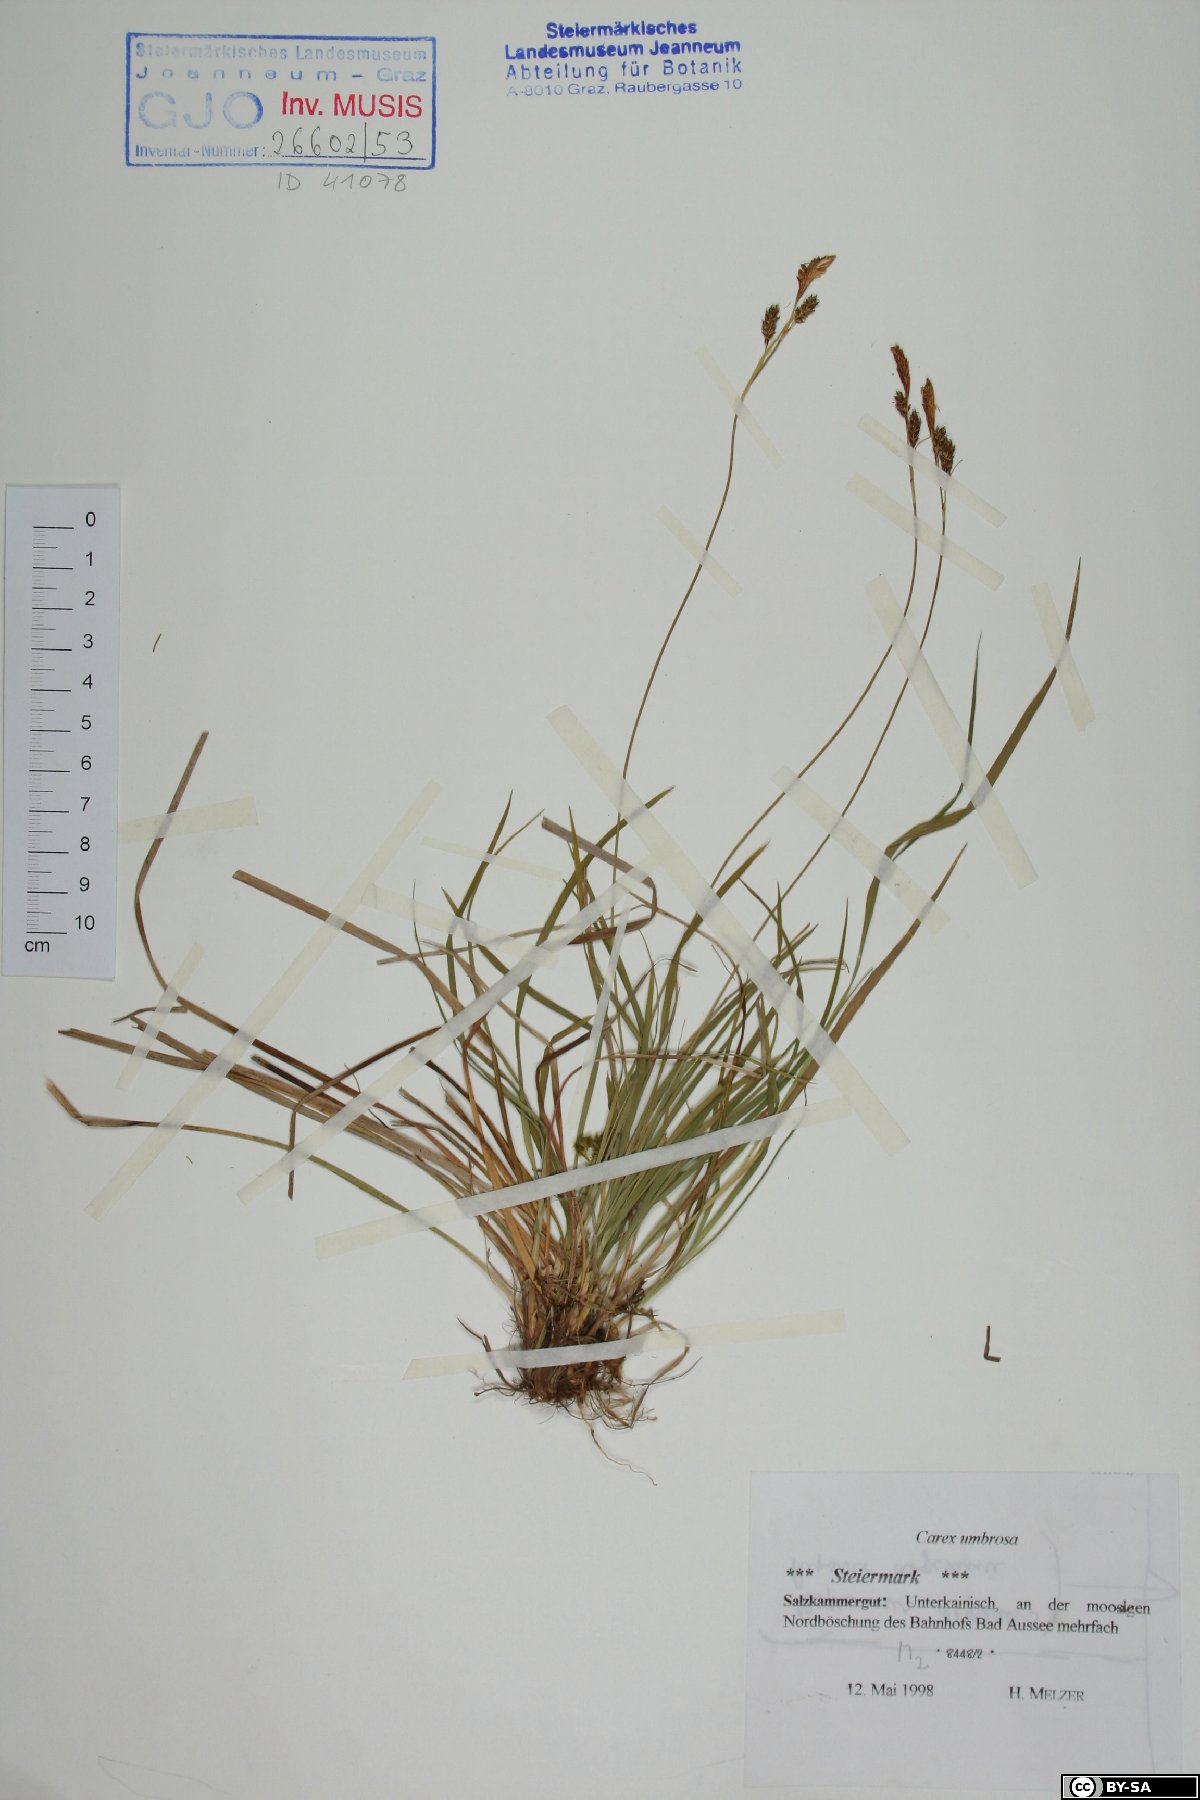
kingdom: Plantae
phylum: Tracheophyta
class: Liliopsida
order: Poales
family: Cyperaceae
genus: Carex
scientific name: Carex umbrosa
